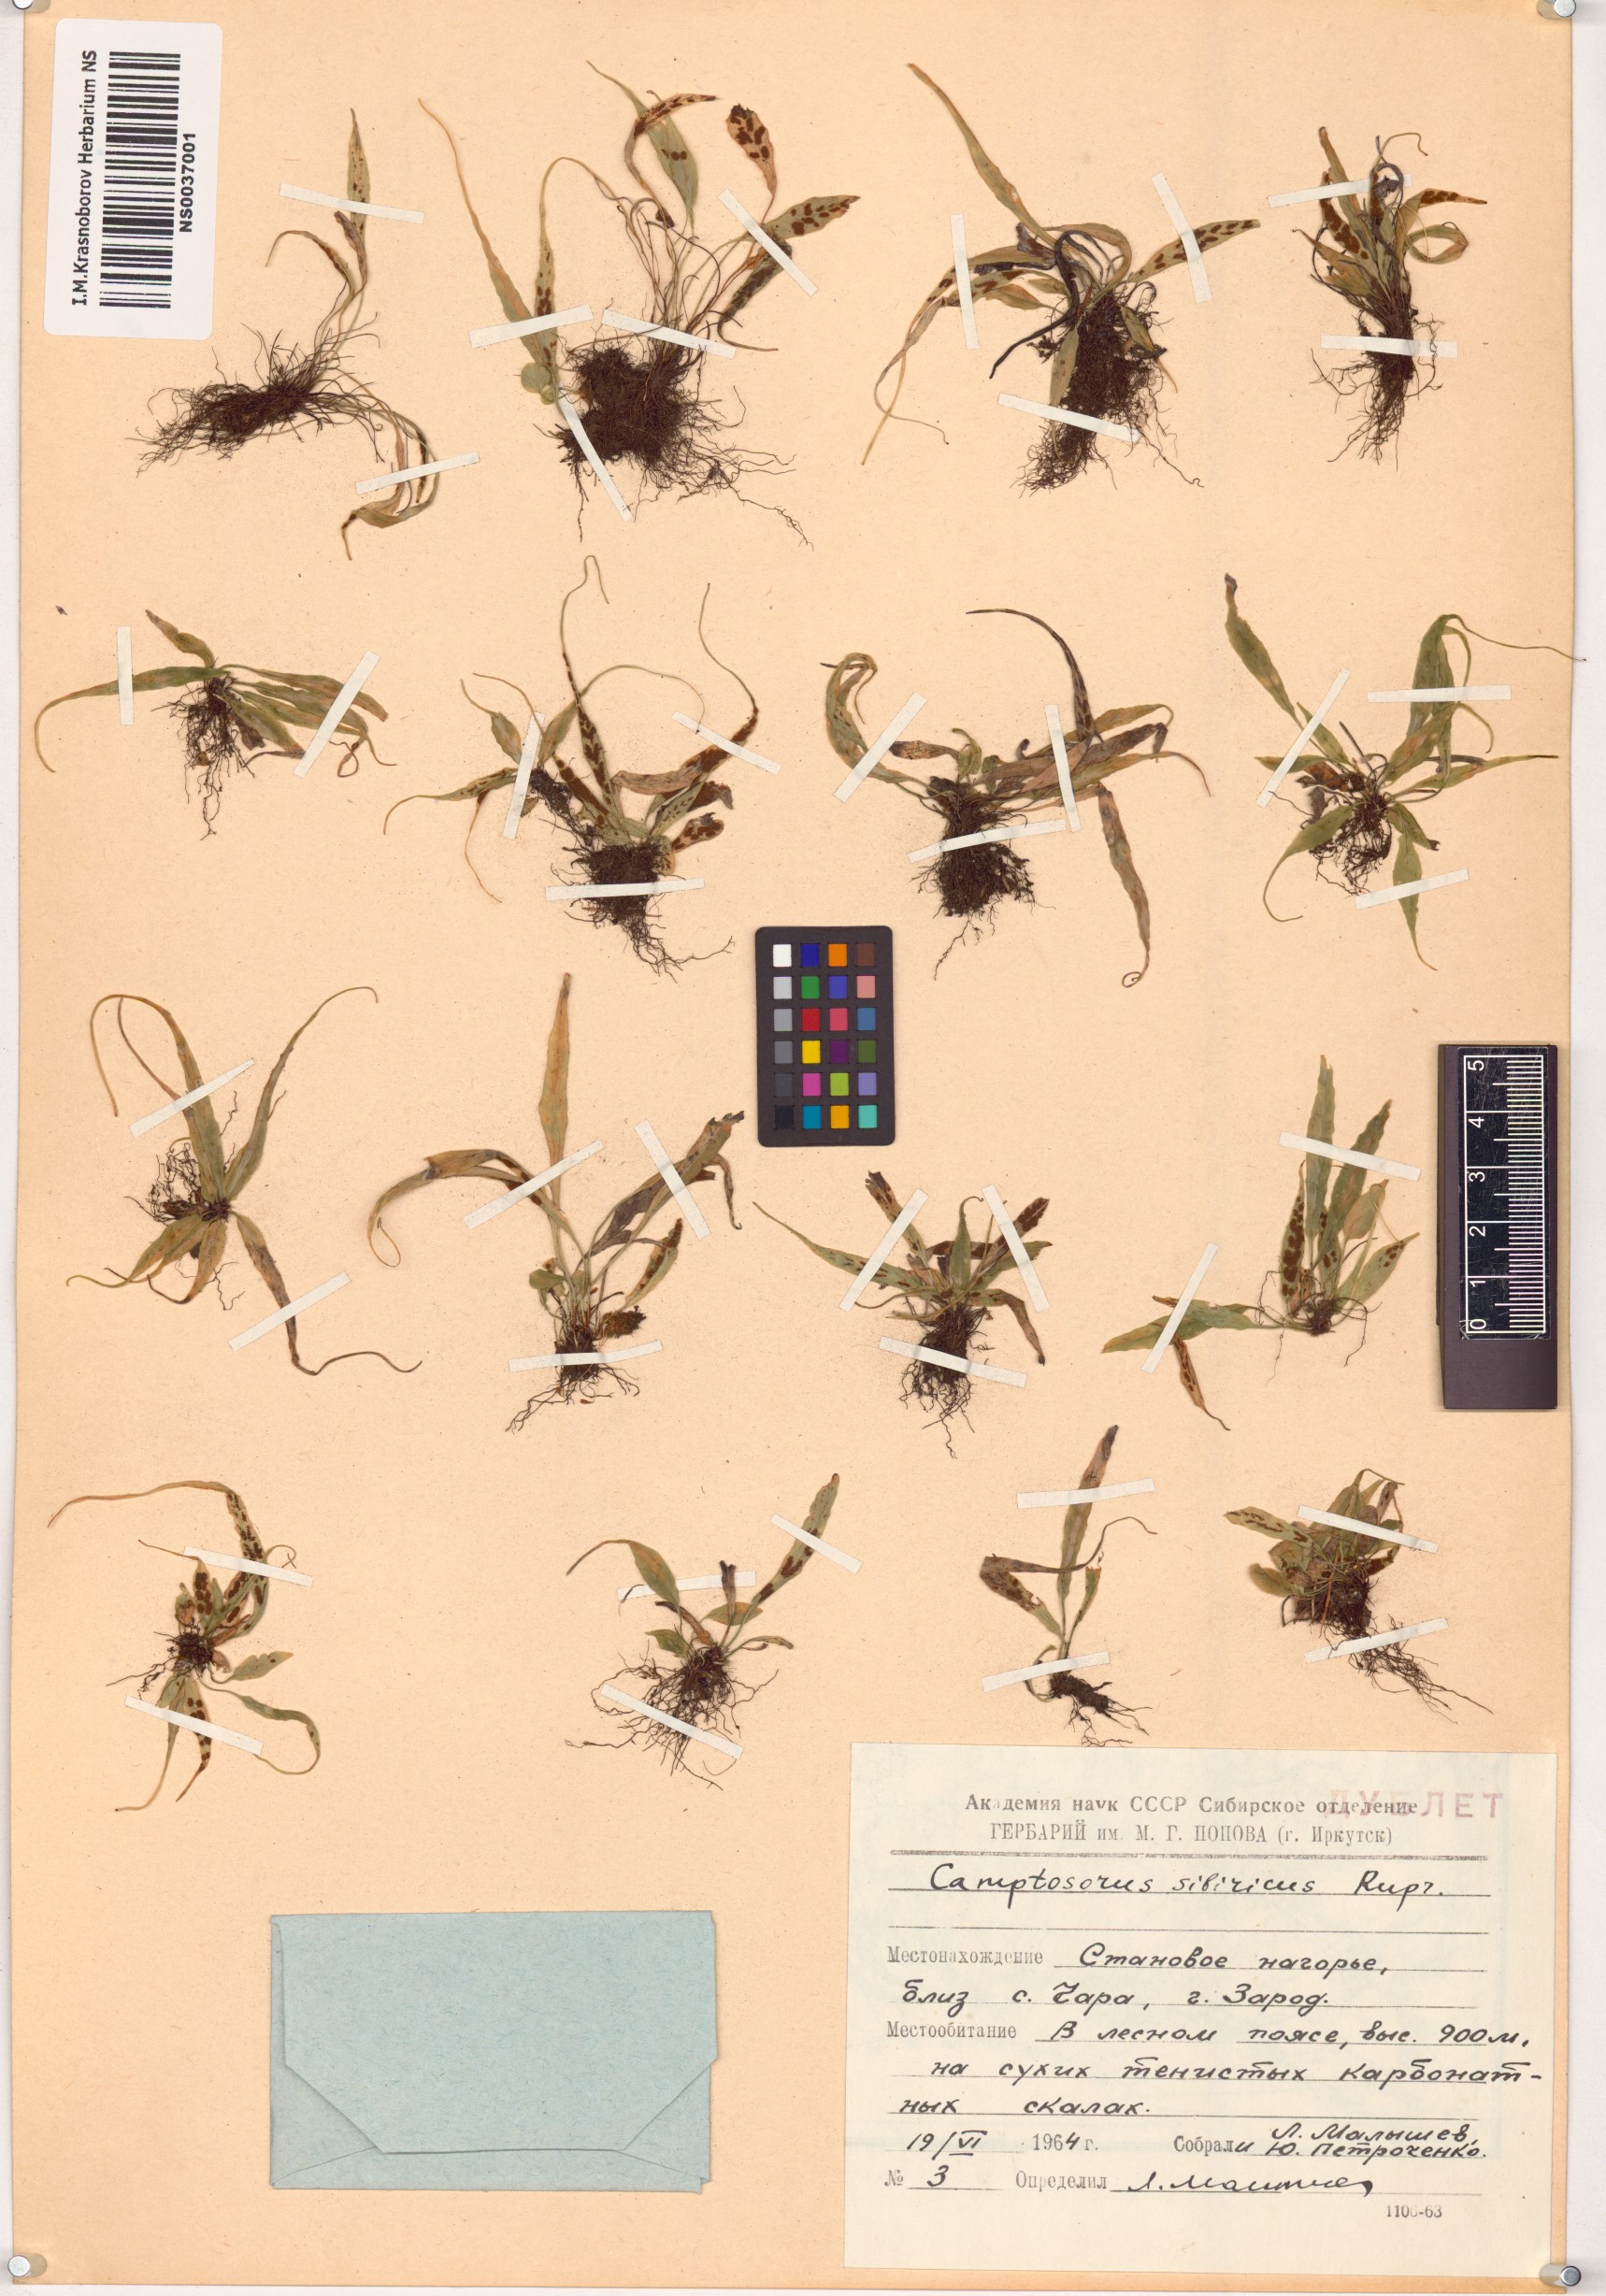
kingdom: Plantae
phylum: Tracheophyta
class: Polypodiopsida
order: Polypodiales
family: Aspleniaceae
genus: Asplenium
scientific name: Asplenium ruprechtii
